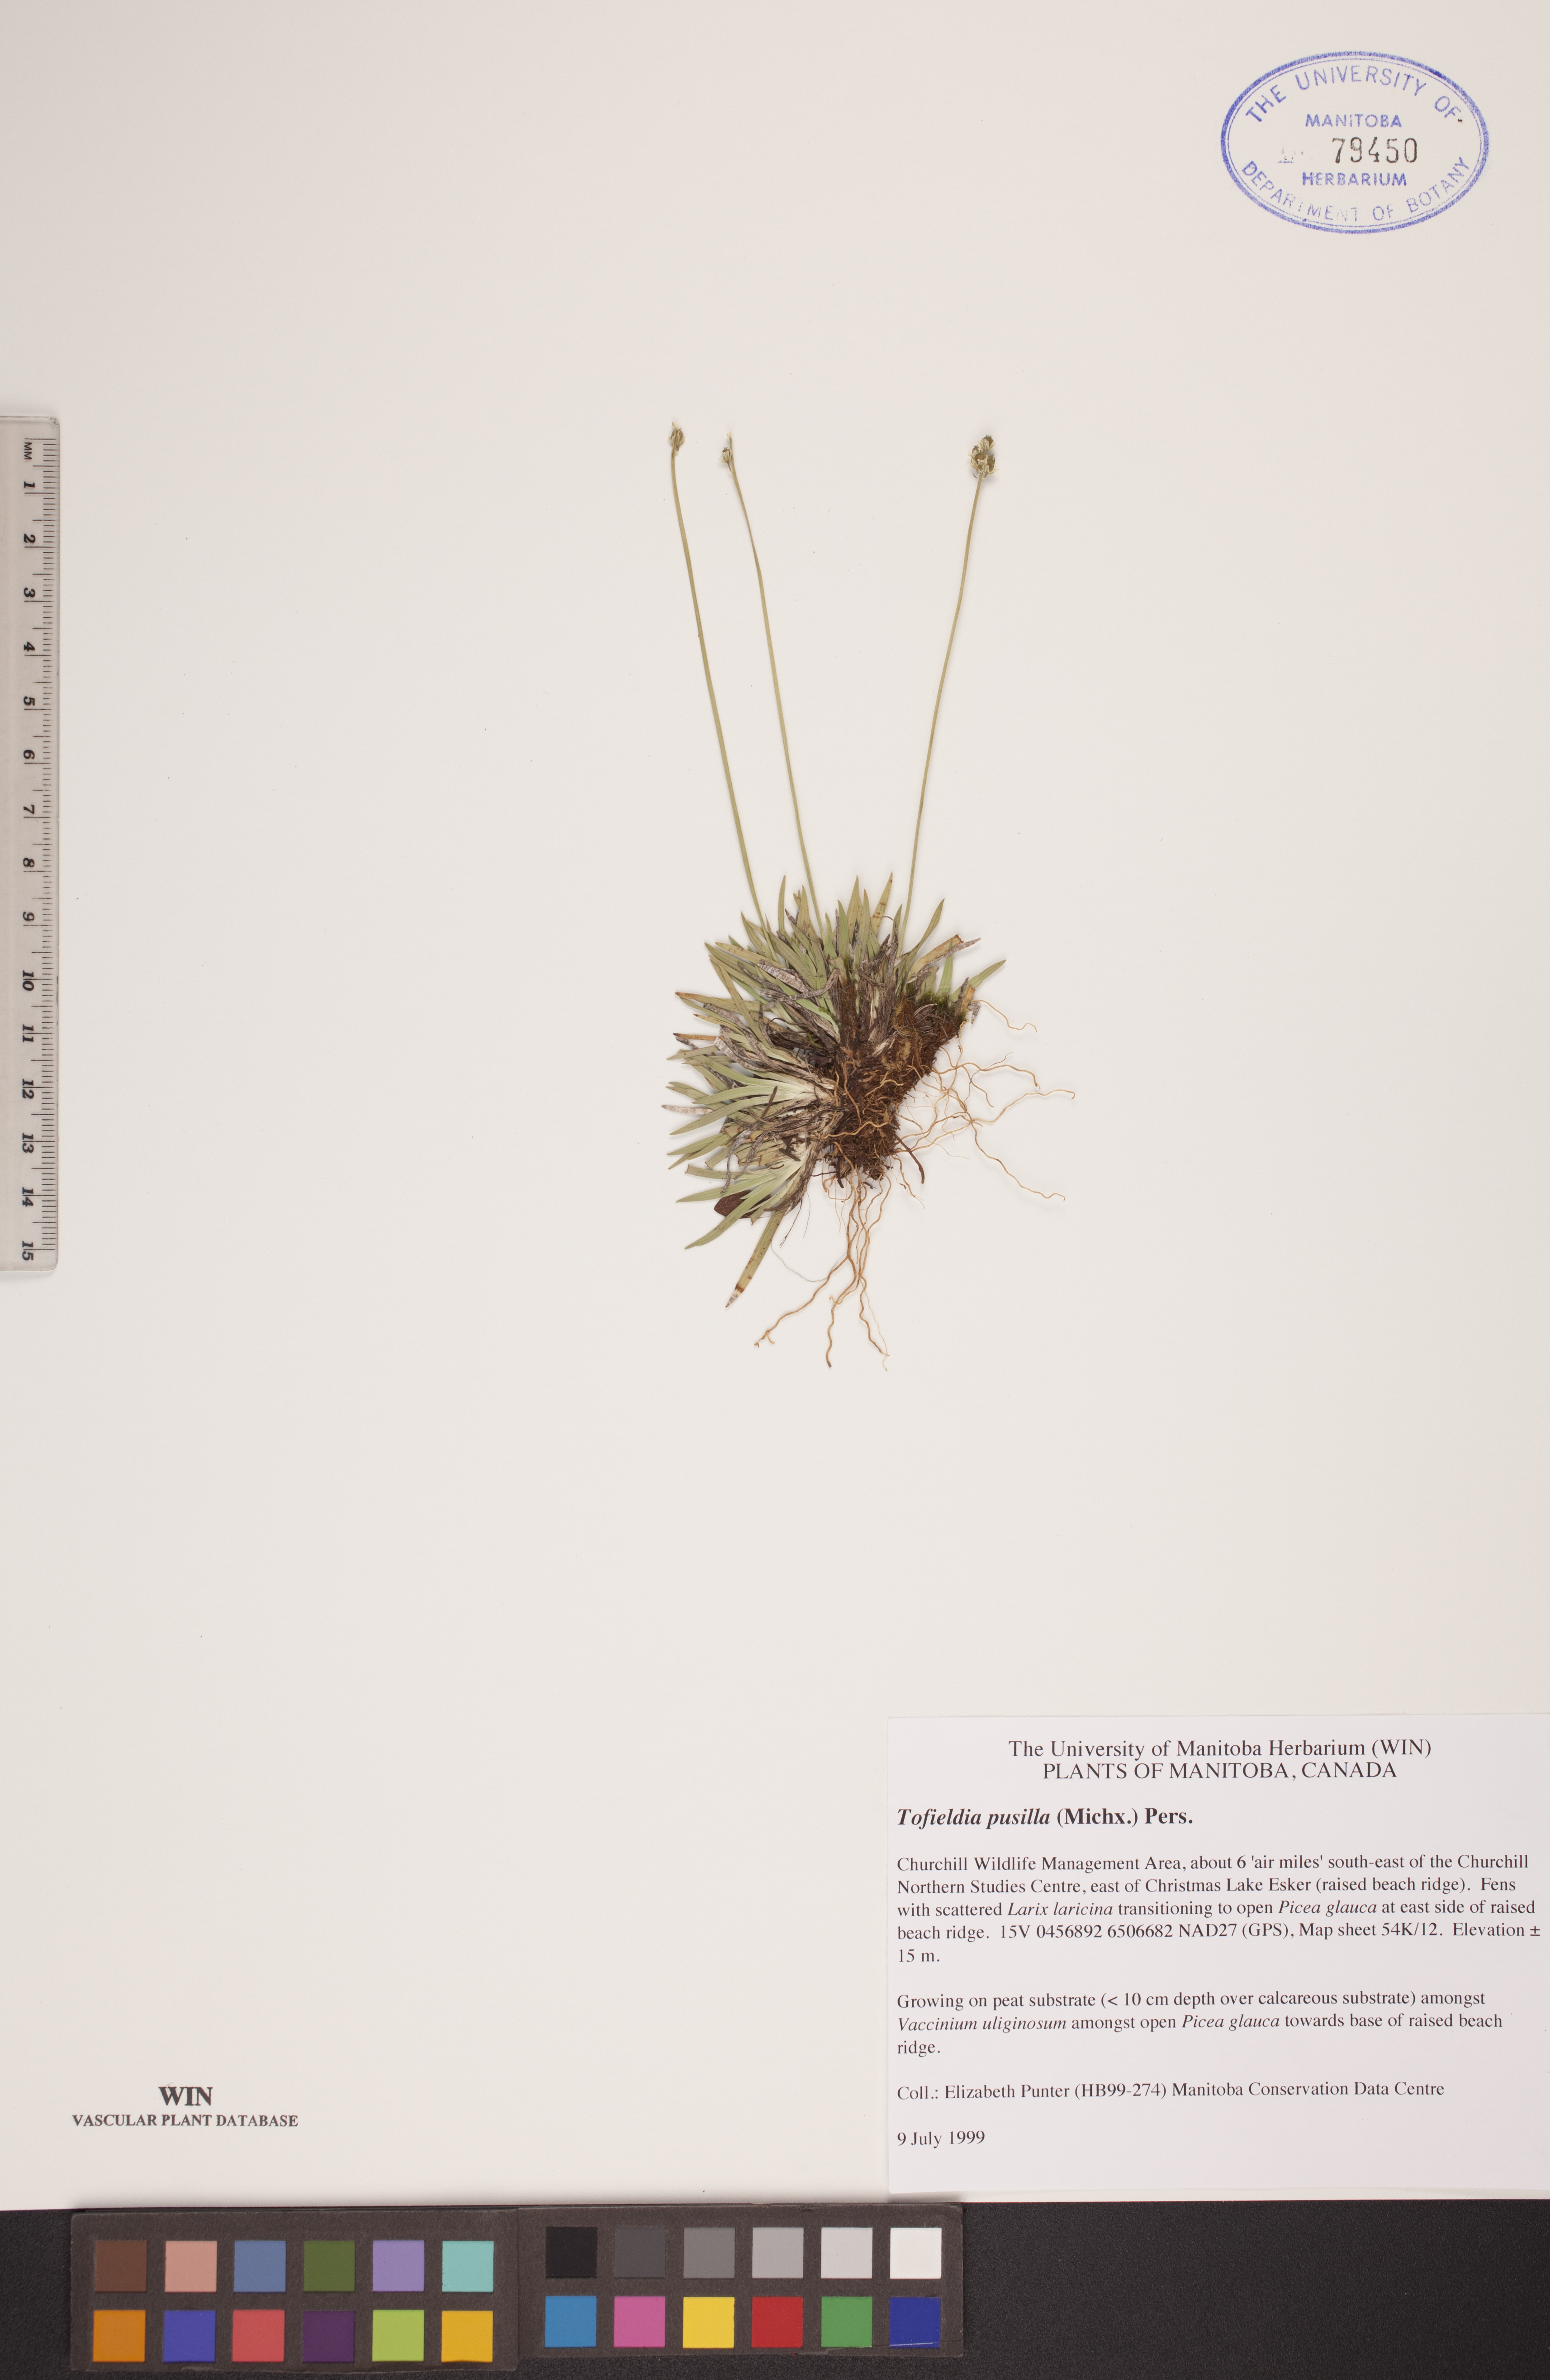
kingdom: Plantae
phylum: Tracheophyta
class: Liliopsida
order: Alismatales
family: Tofieldiaceae
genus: Tofieldia
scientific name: Tofieldia pusilla
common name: Scottish false asphodel
